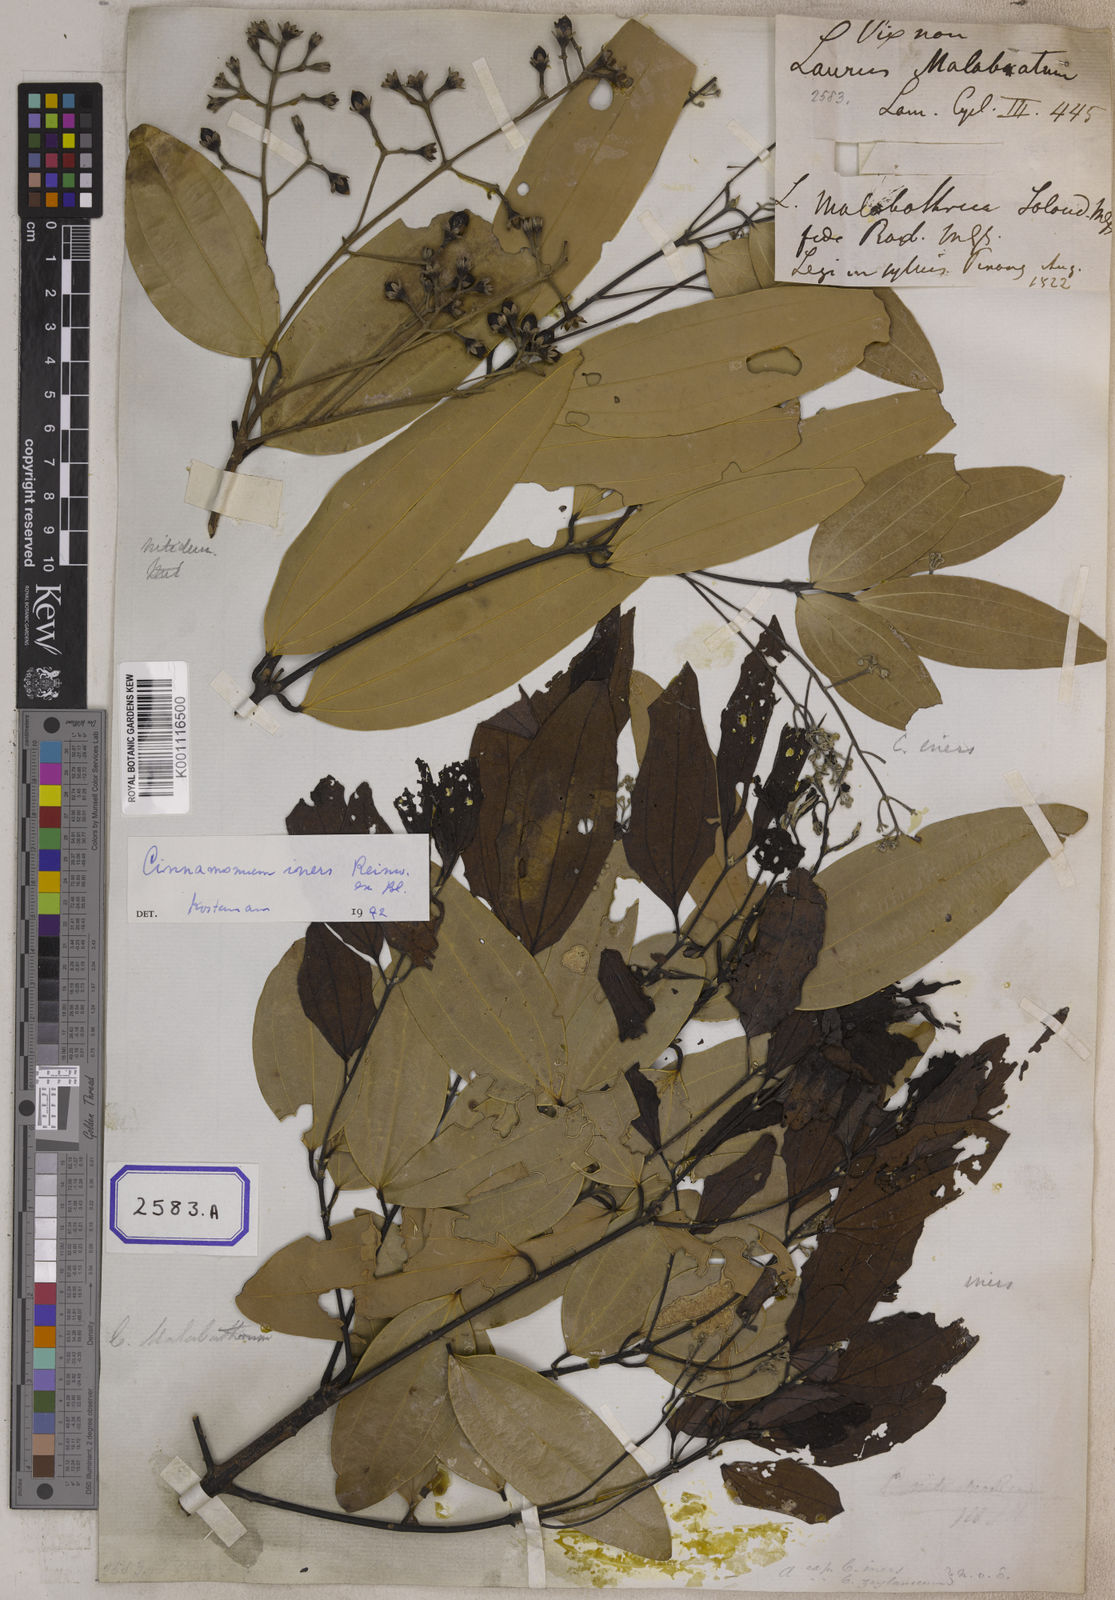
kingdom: Plantae
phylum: Tracheophyta
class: Magnoliopsida
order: Laurales
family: Lauraceae
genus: Cinnamomum
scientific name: Cinnamomum
